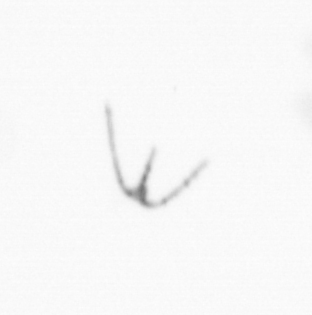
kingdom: Chromista
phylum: Myzozoa
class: Dinophyceae
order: Gonyaulacales
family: Ceratiaceae
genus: Ceratium
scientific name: Ceratium
